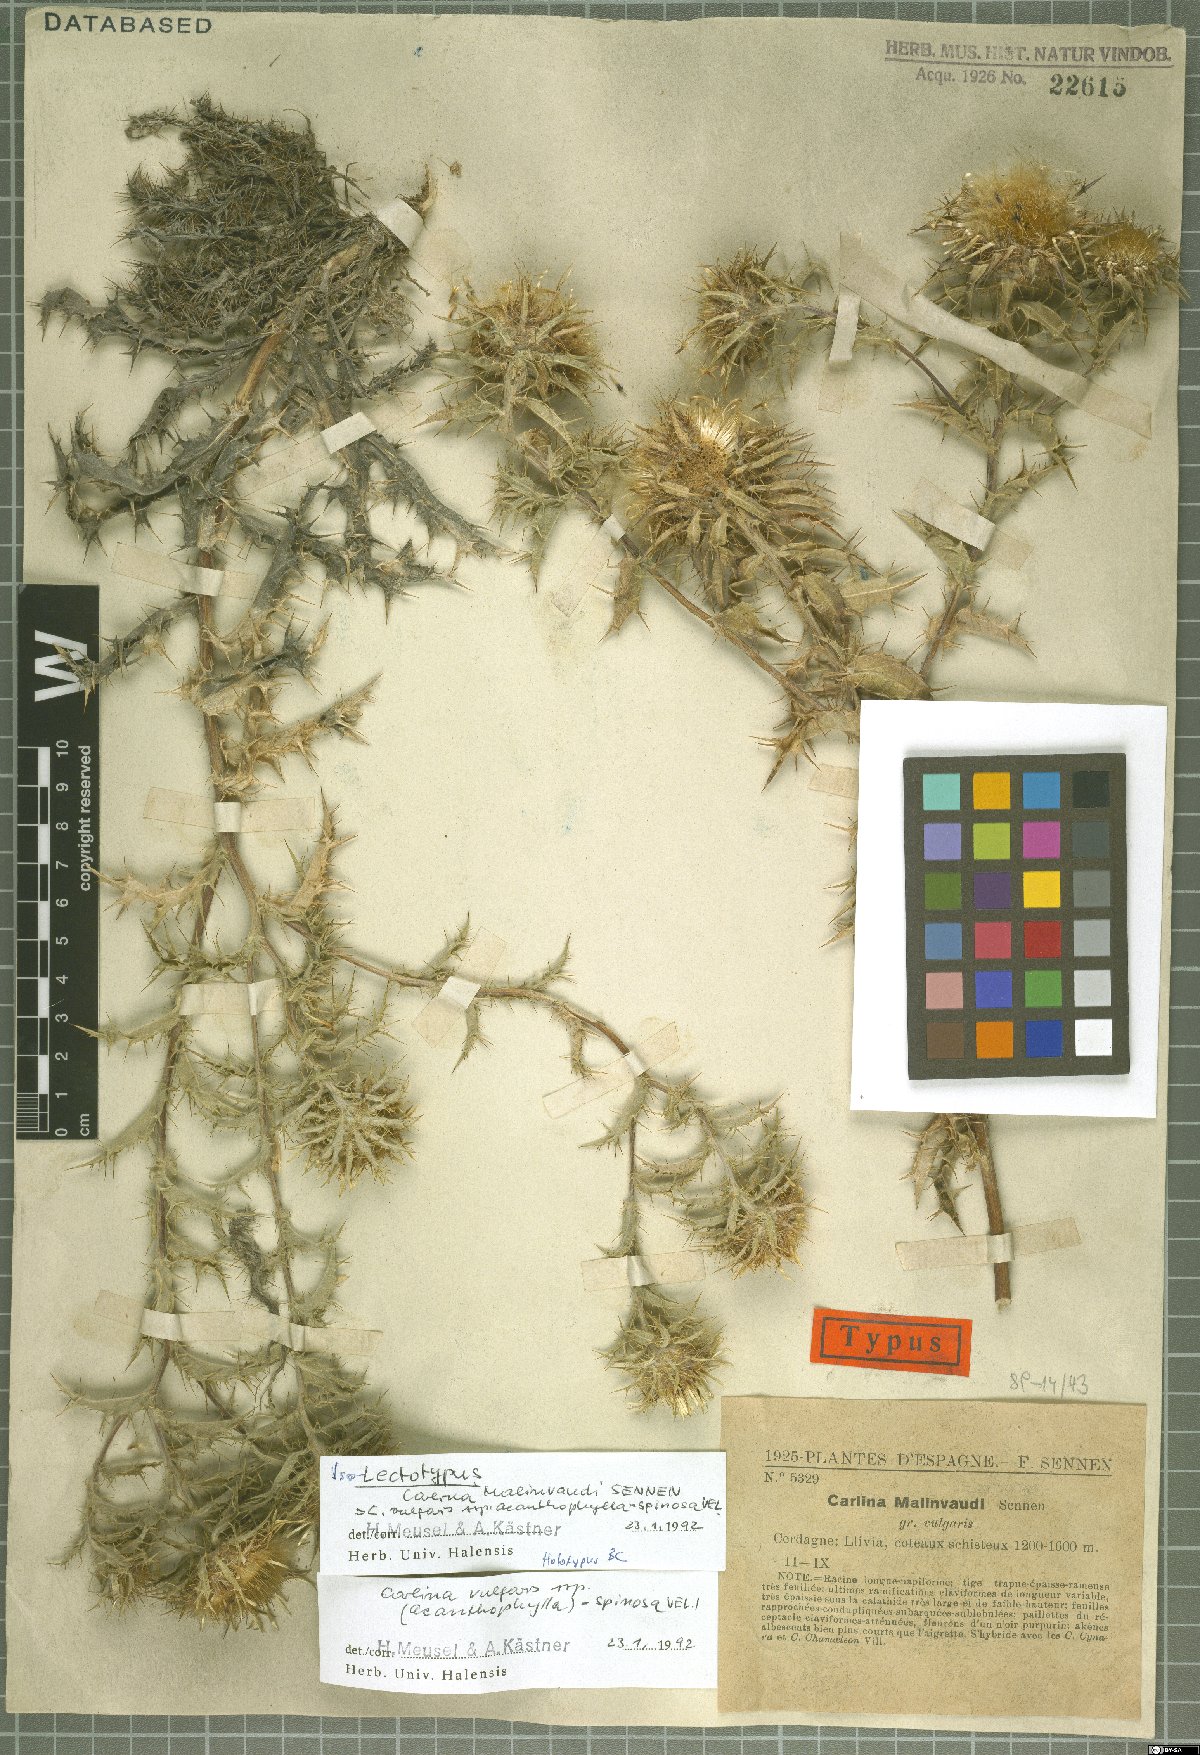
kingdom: Plantae
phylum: Tracheophyta
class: Magnoliopsida
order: Asterales
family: Asteraceae
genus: Carlina
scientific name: Carlina vulgaris
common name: Carline thistle
